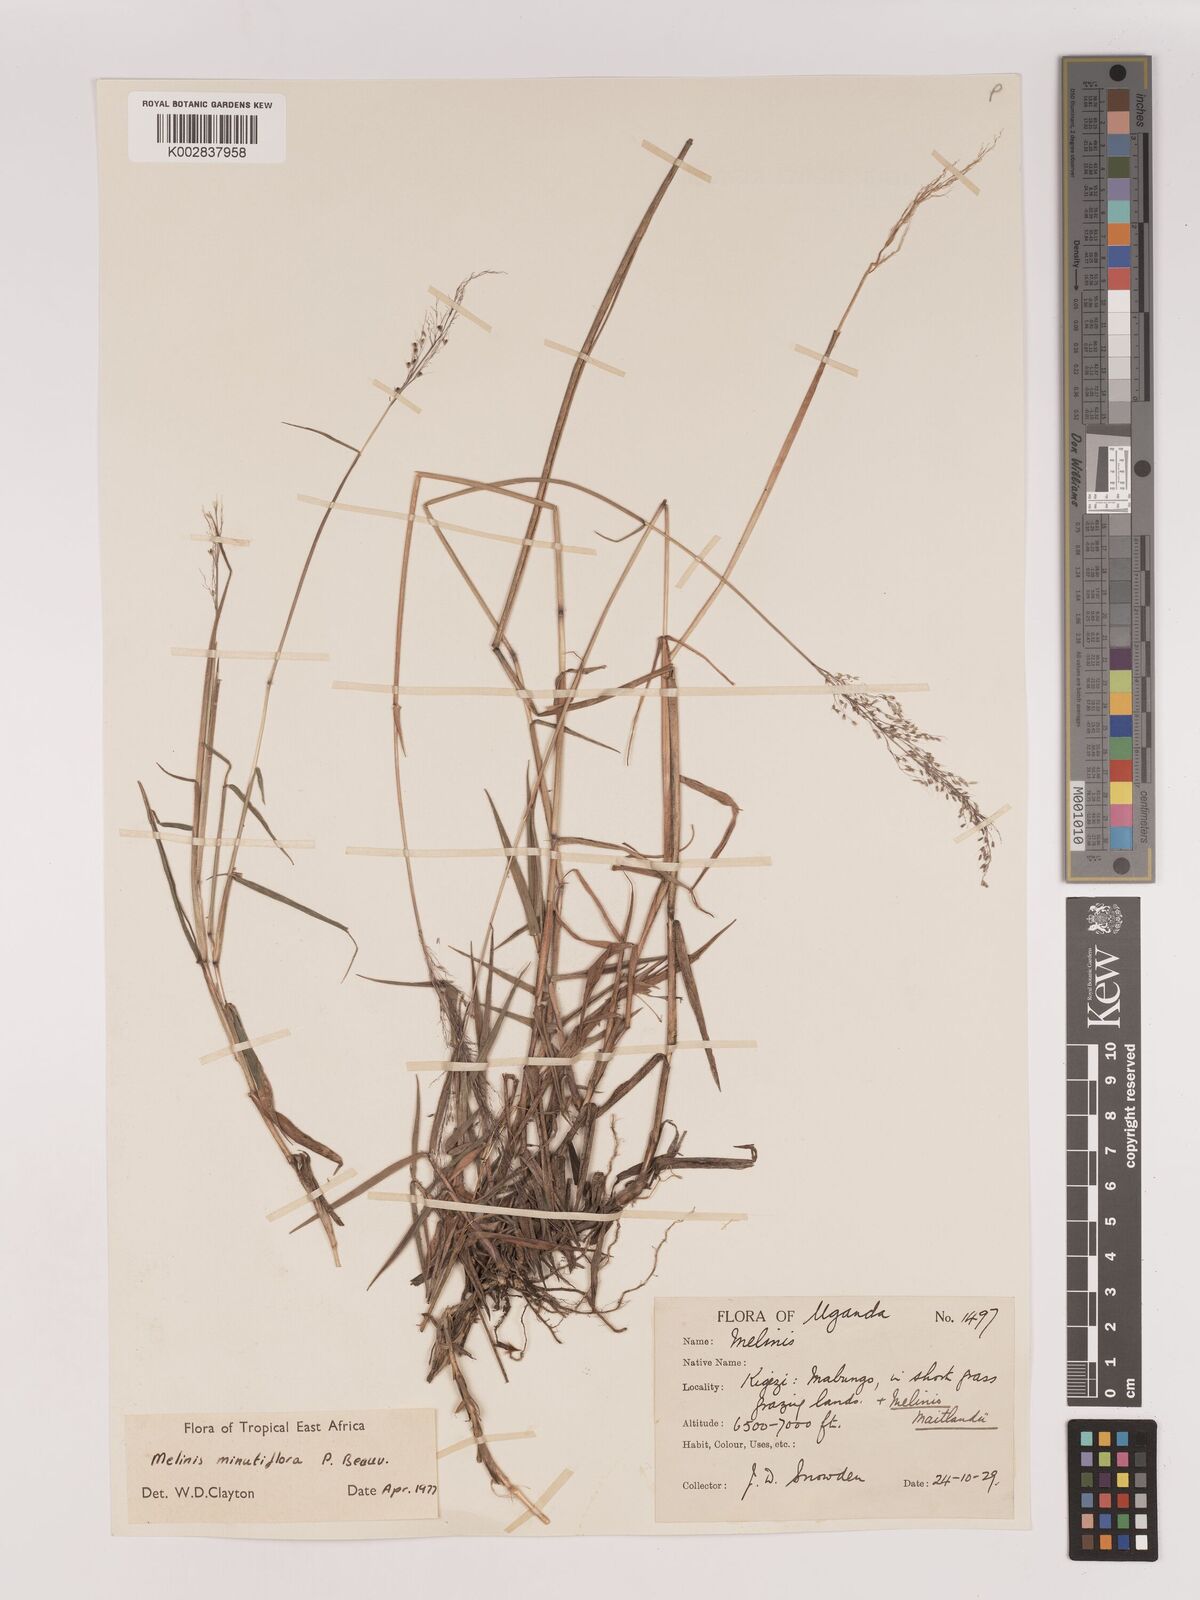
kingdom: Plantae
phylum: Tracheophyta
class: Liliopsida
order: Poales
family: Poaceae
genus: Melinis
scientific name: Melinis minutiflora
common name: Molassesgrass
